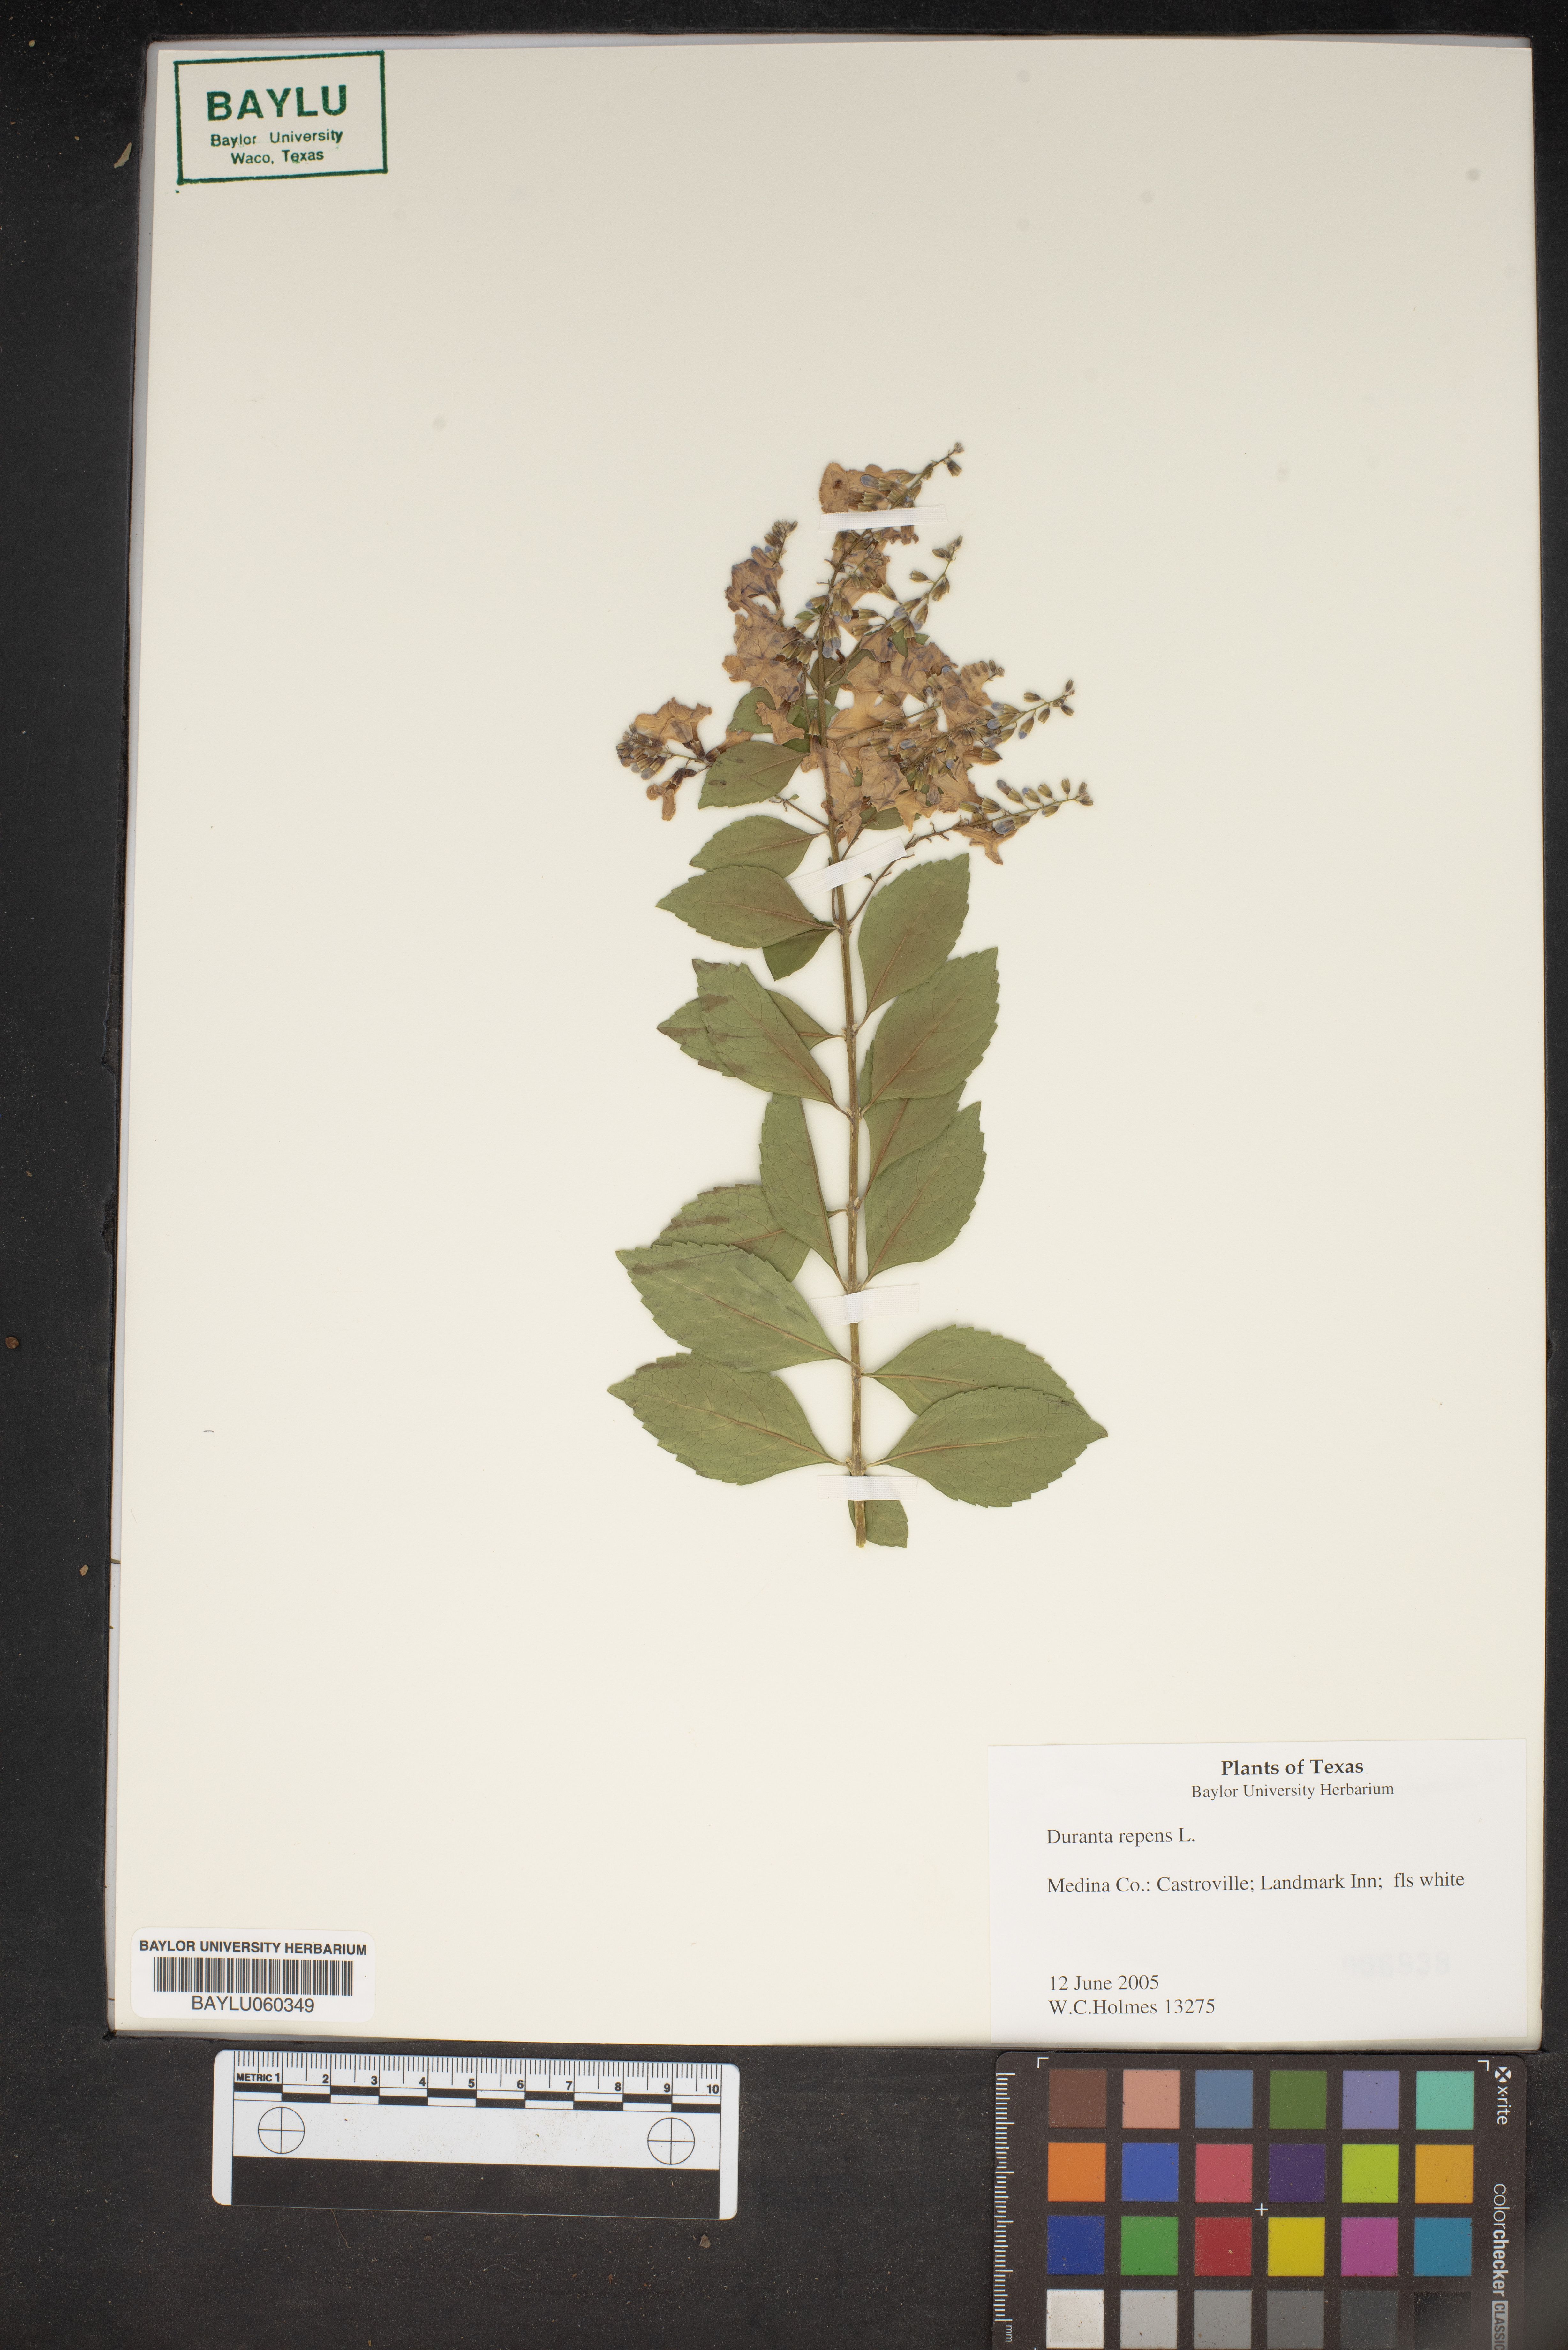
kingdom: Plantae
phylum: Tracheophyta
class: Magnoliopsida
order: Lamiales
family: Verbenaceae
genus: Duranta
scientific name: Duranta erecta
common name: Golden dewdrops
